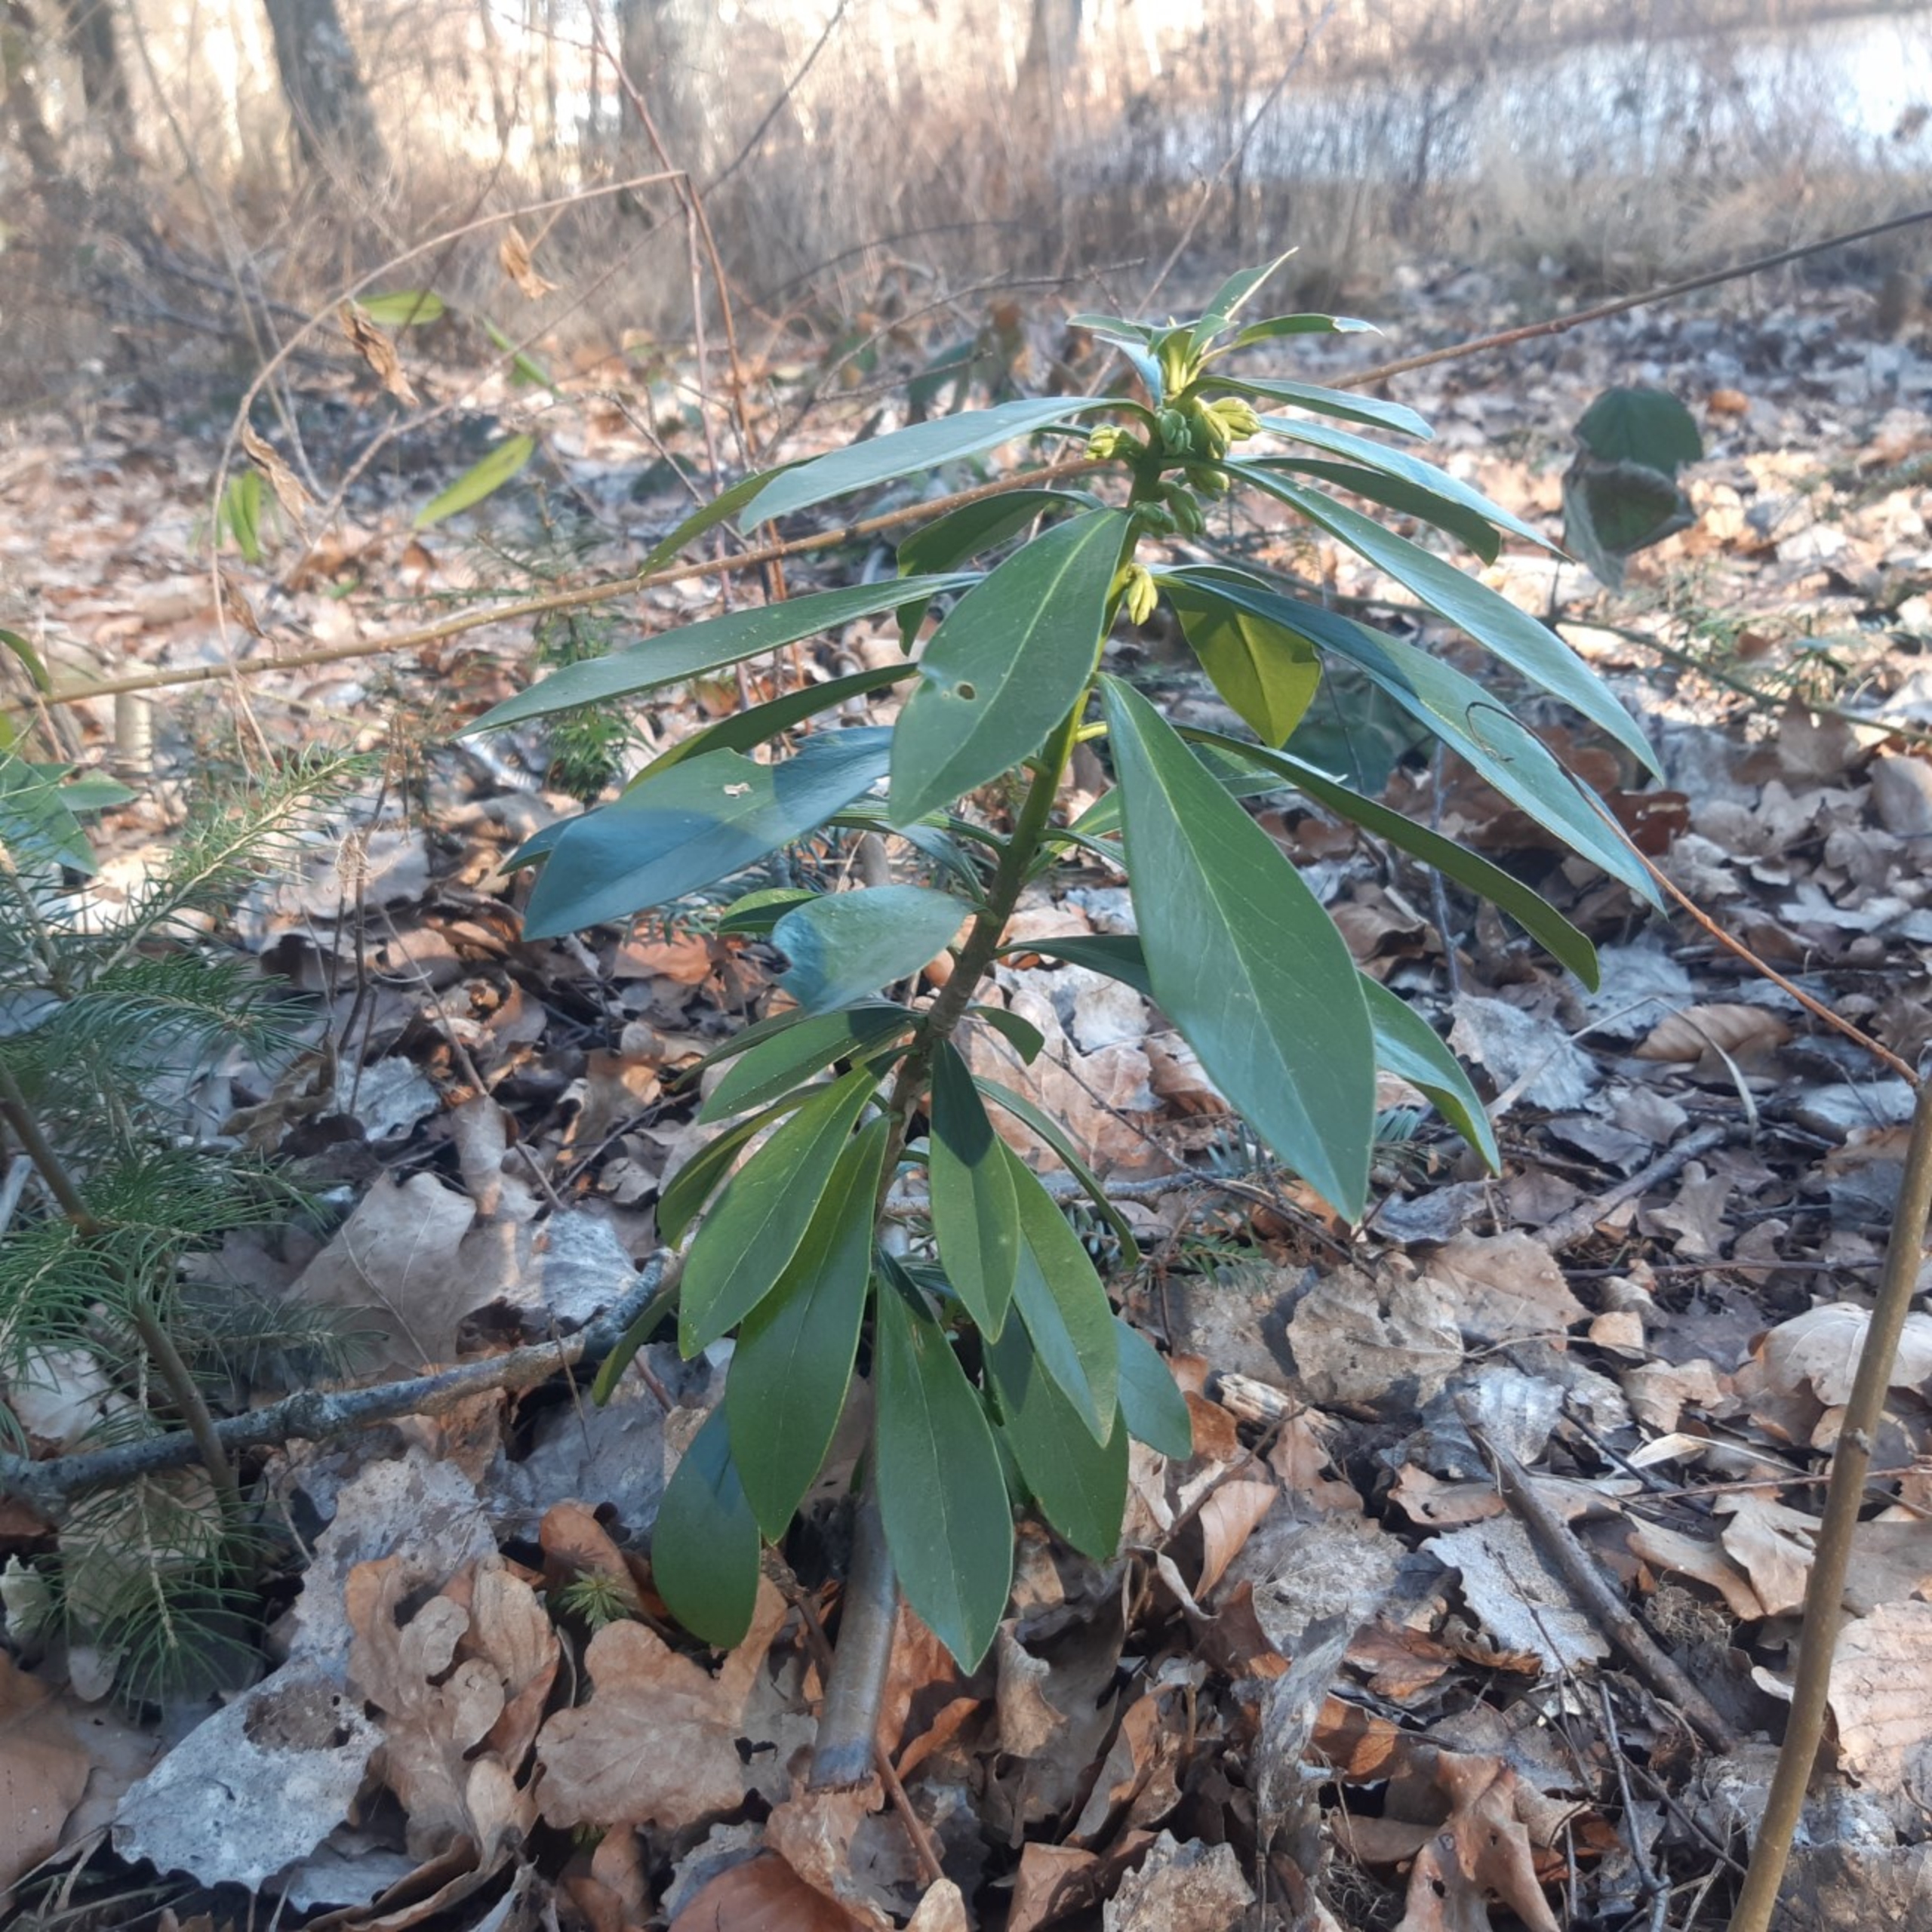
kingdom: Plantae
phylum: Tracheophyta
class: Magnoliopsida
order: Malvales
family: Thymelaeaceae
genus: Daphne
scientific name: Daphne laureola
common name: Laurbær-dafne
